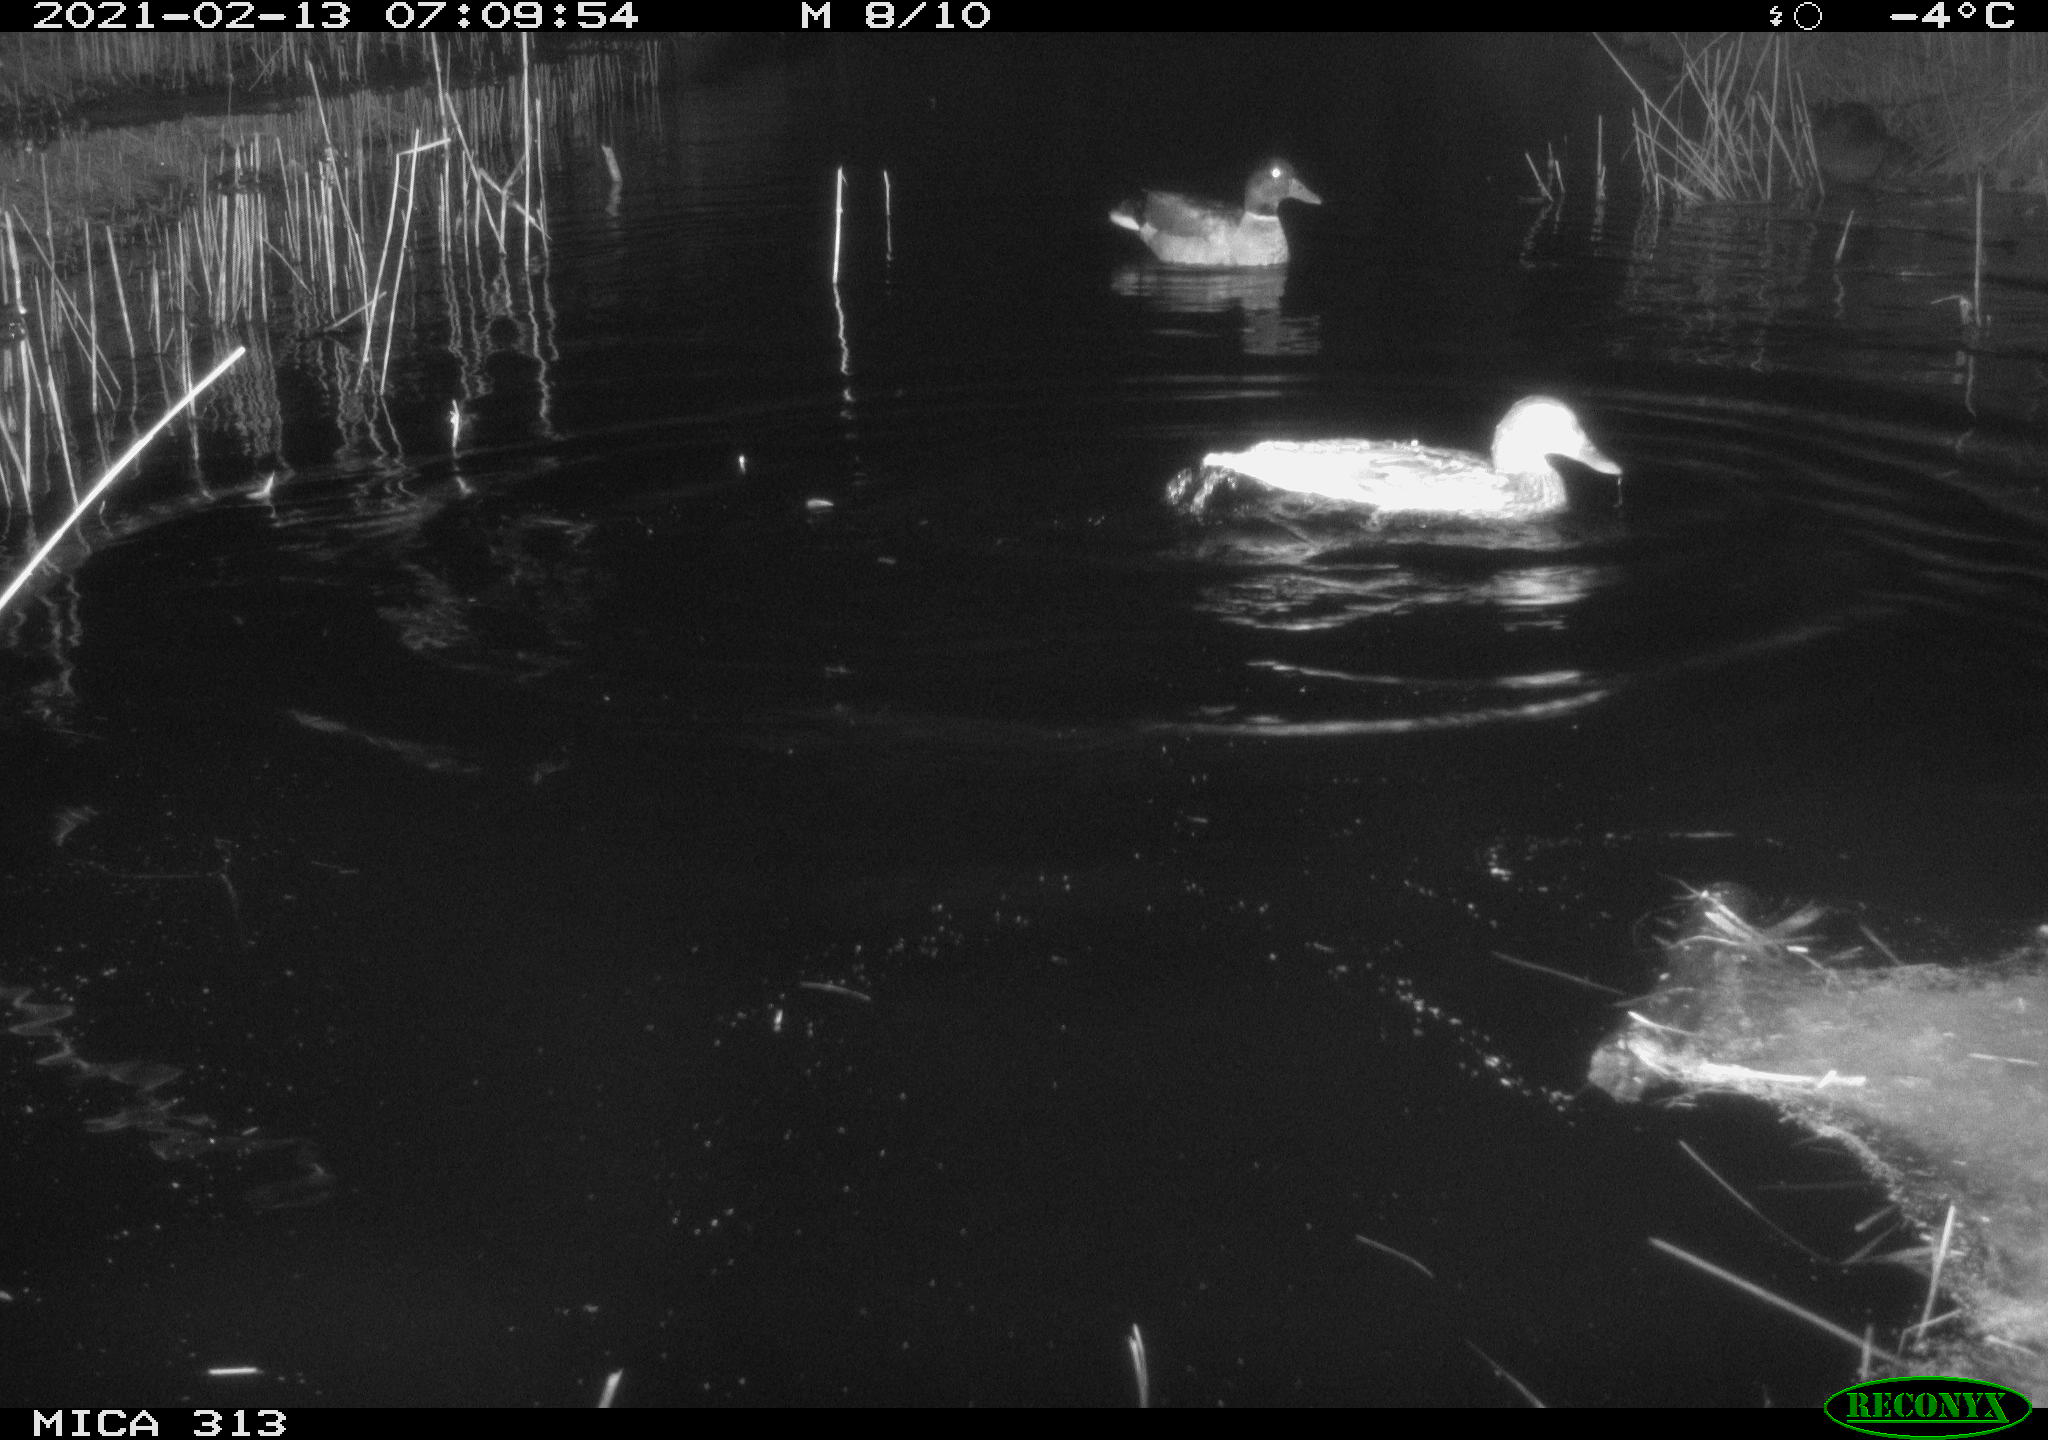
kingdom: Animalia
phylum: Chordata
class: Aves
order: Gruiformes
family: Rallidae
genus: Gallinula
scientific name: Gallinula chloropus
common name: Common moorhen
